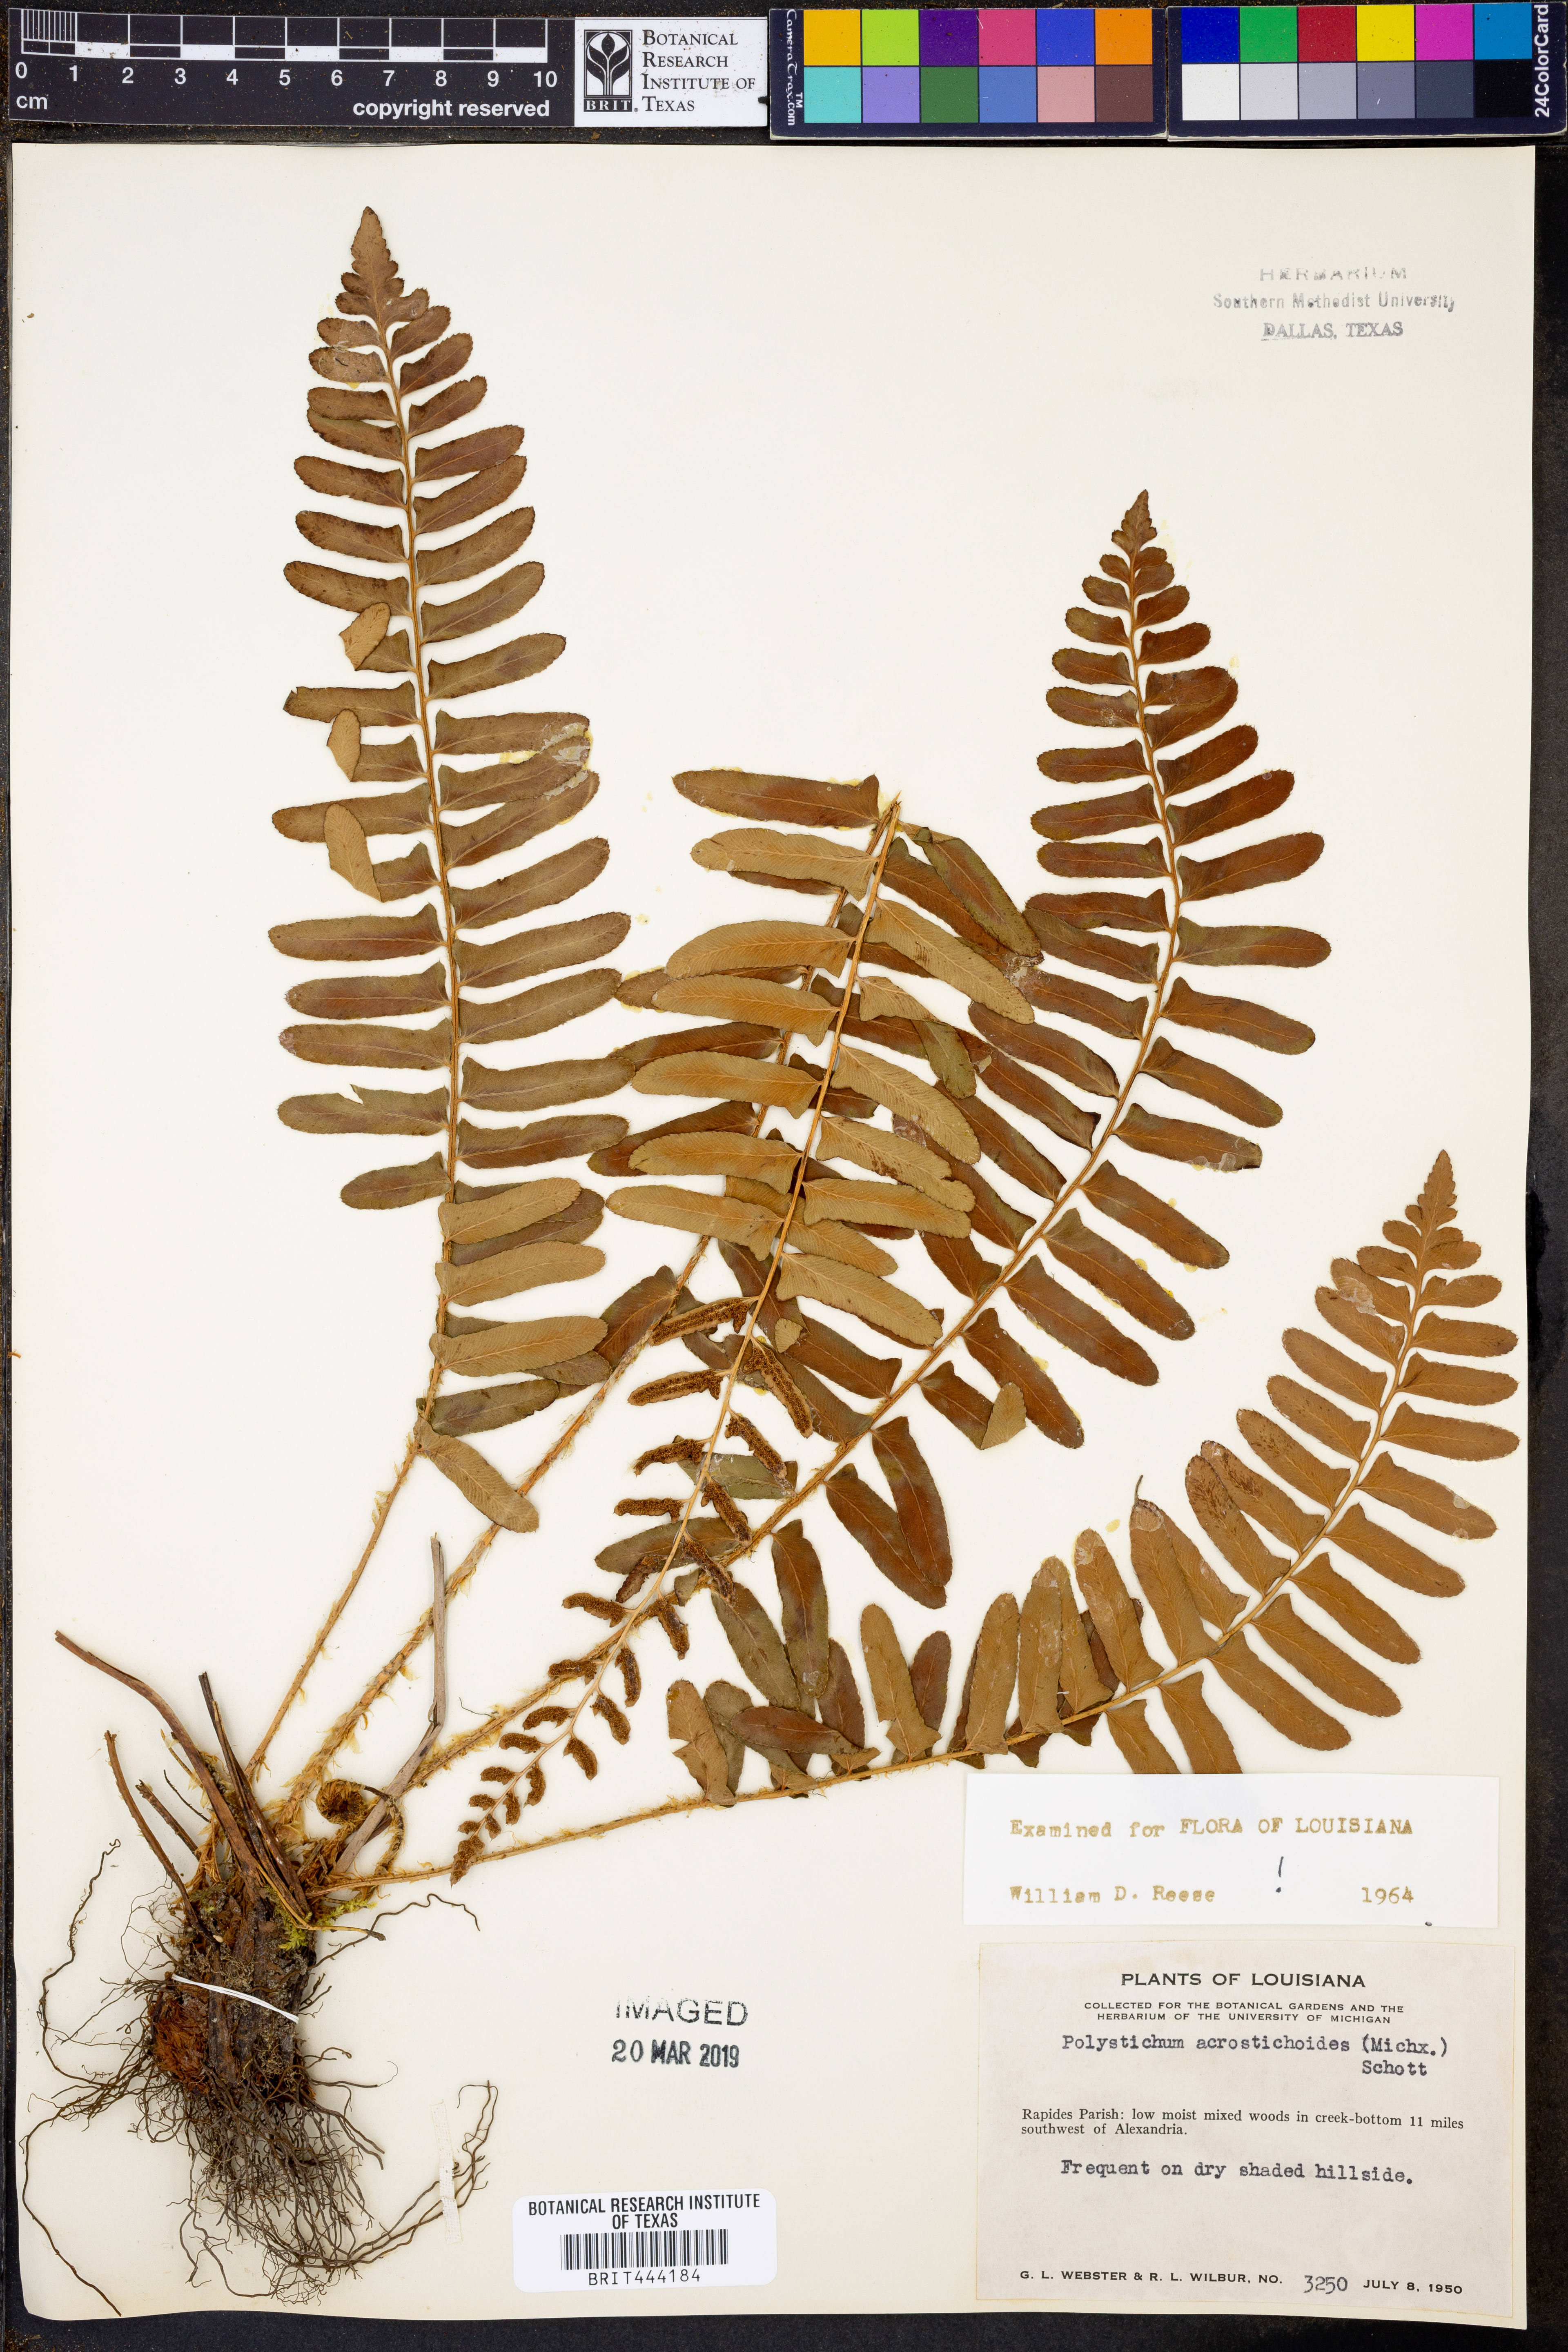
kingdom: Plantae
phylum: Tracheophyta
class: Polypodiopsida
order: Polypodiales
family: Dryopteridaceae
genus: Polystichum
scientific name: Polystichum acrostichoides
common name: Christmas fern
